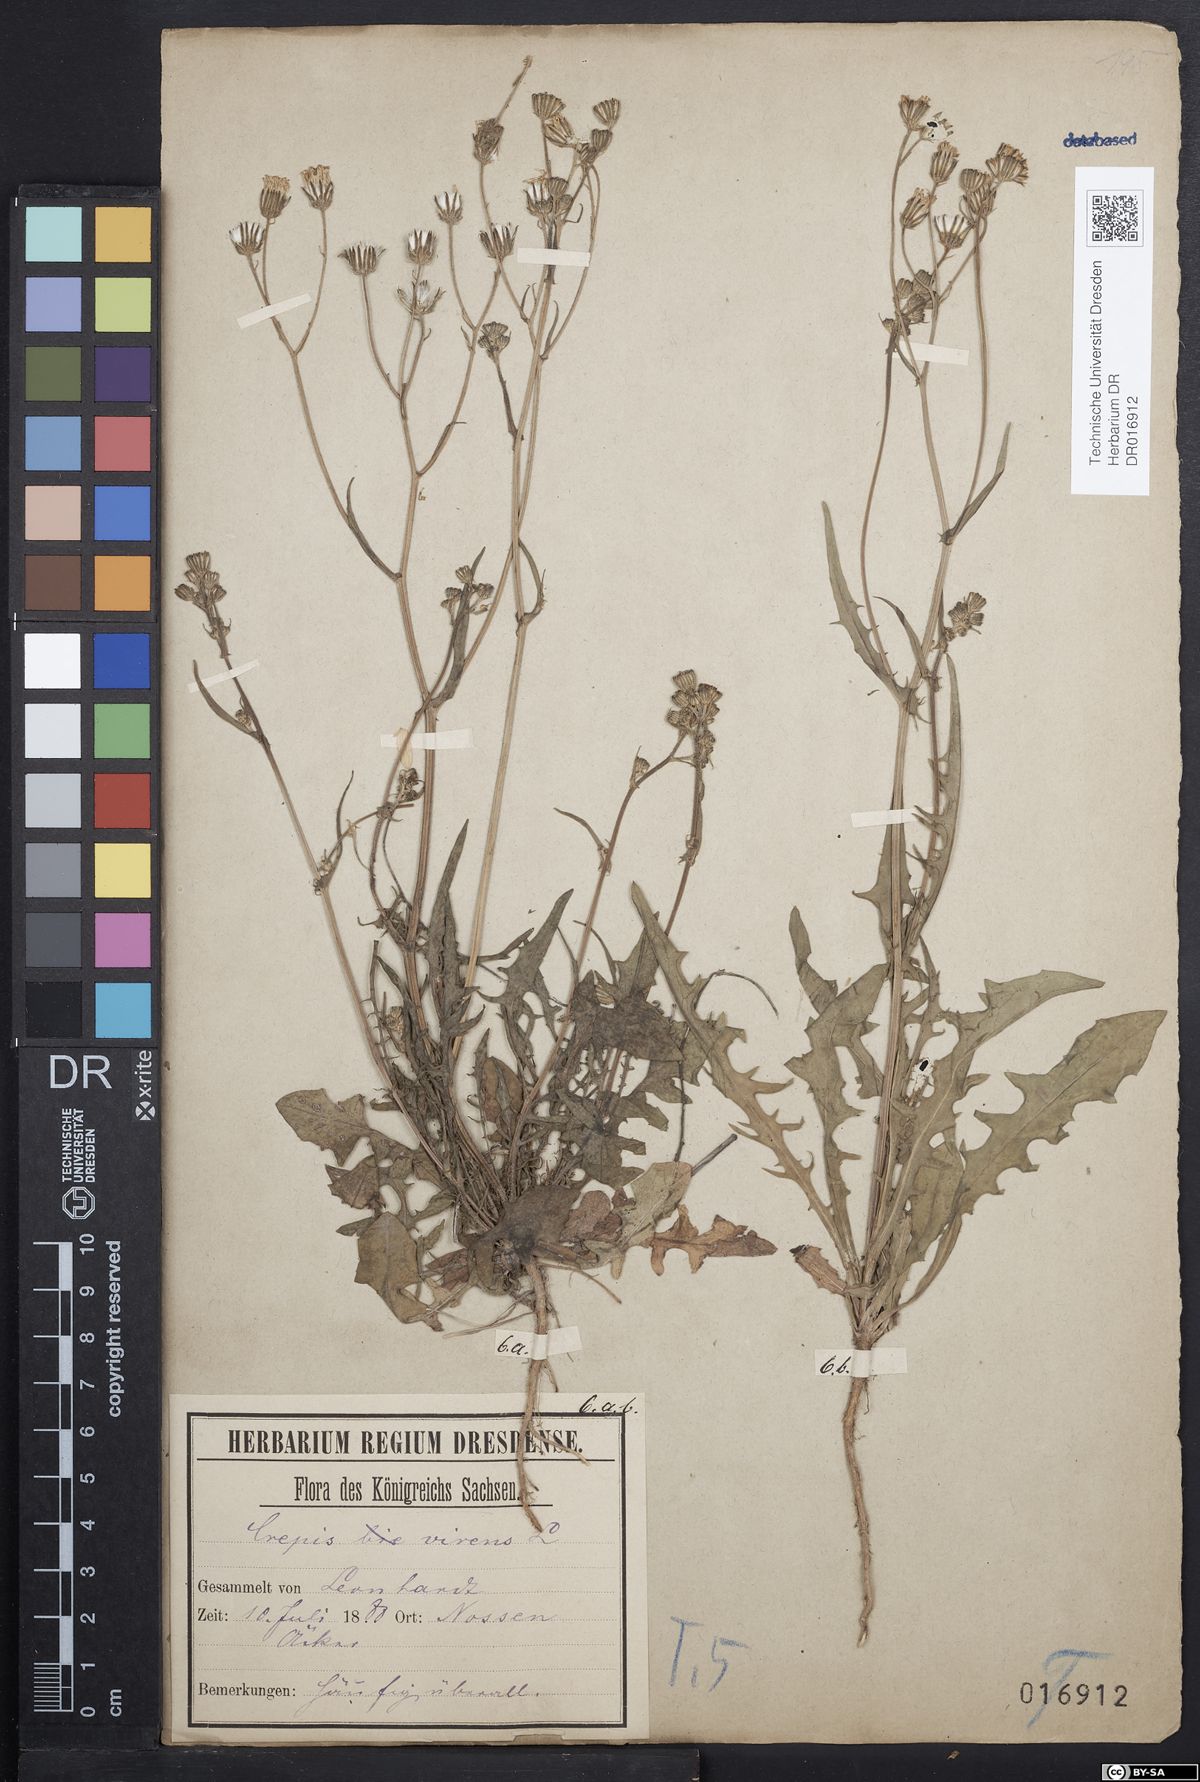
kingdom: Plantae
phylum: Tracheophyta
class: Magnoliopsida
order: Asterales
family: Asteraceae
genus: Crepis
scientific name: Crepis capillaris
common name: Smooth hawksbeard
